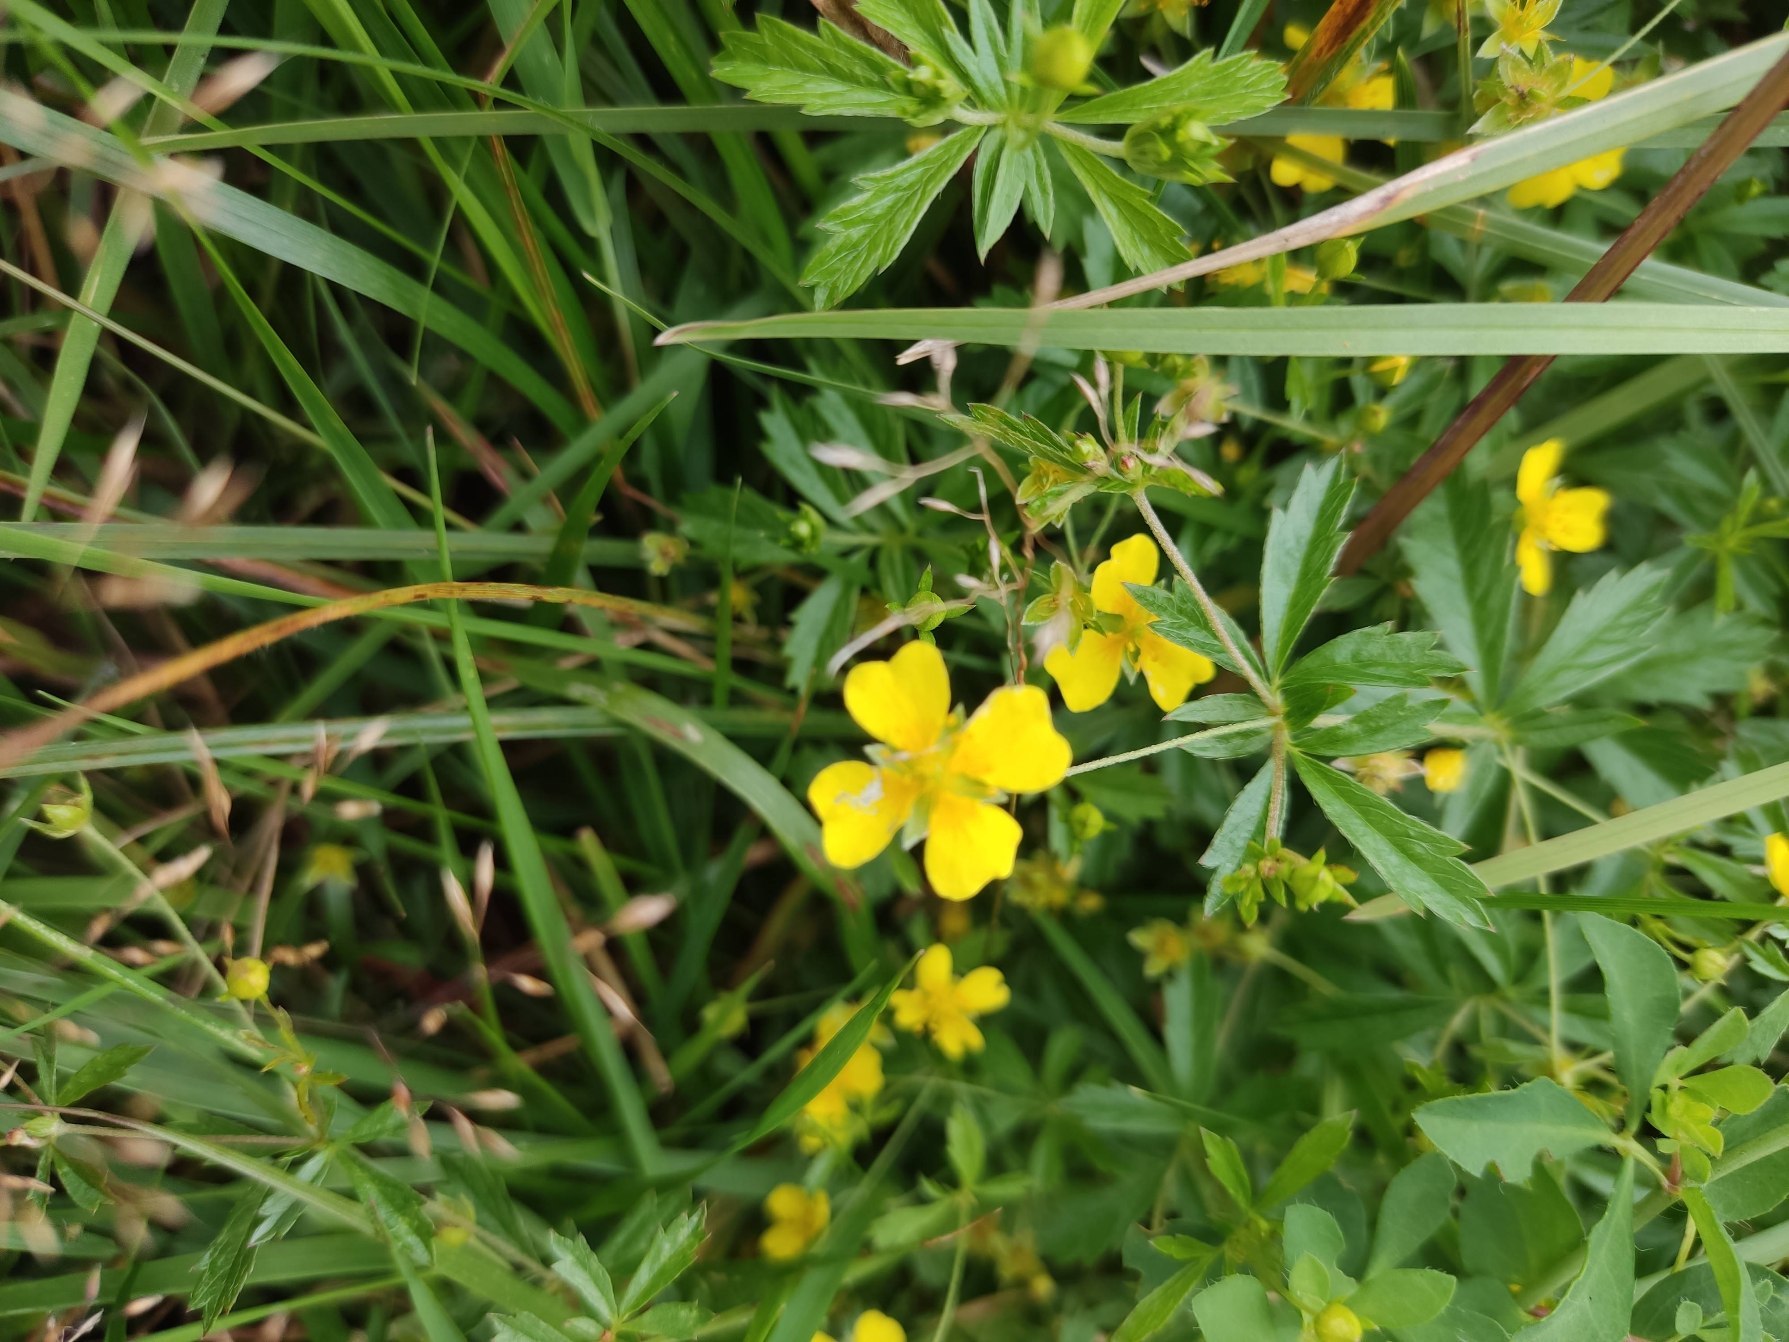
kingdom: Plantae
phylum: Tracheophyta
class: Magnoliopsida
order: Rosales
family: Rosaceae
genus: Potentilla
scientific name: Potentilla erecta
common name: Tormentil
